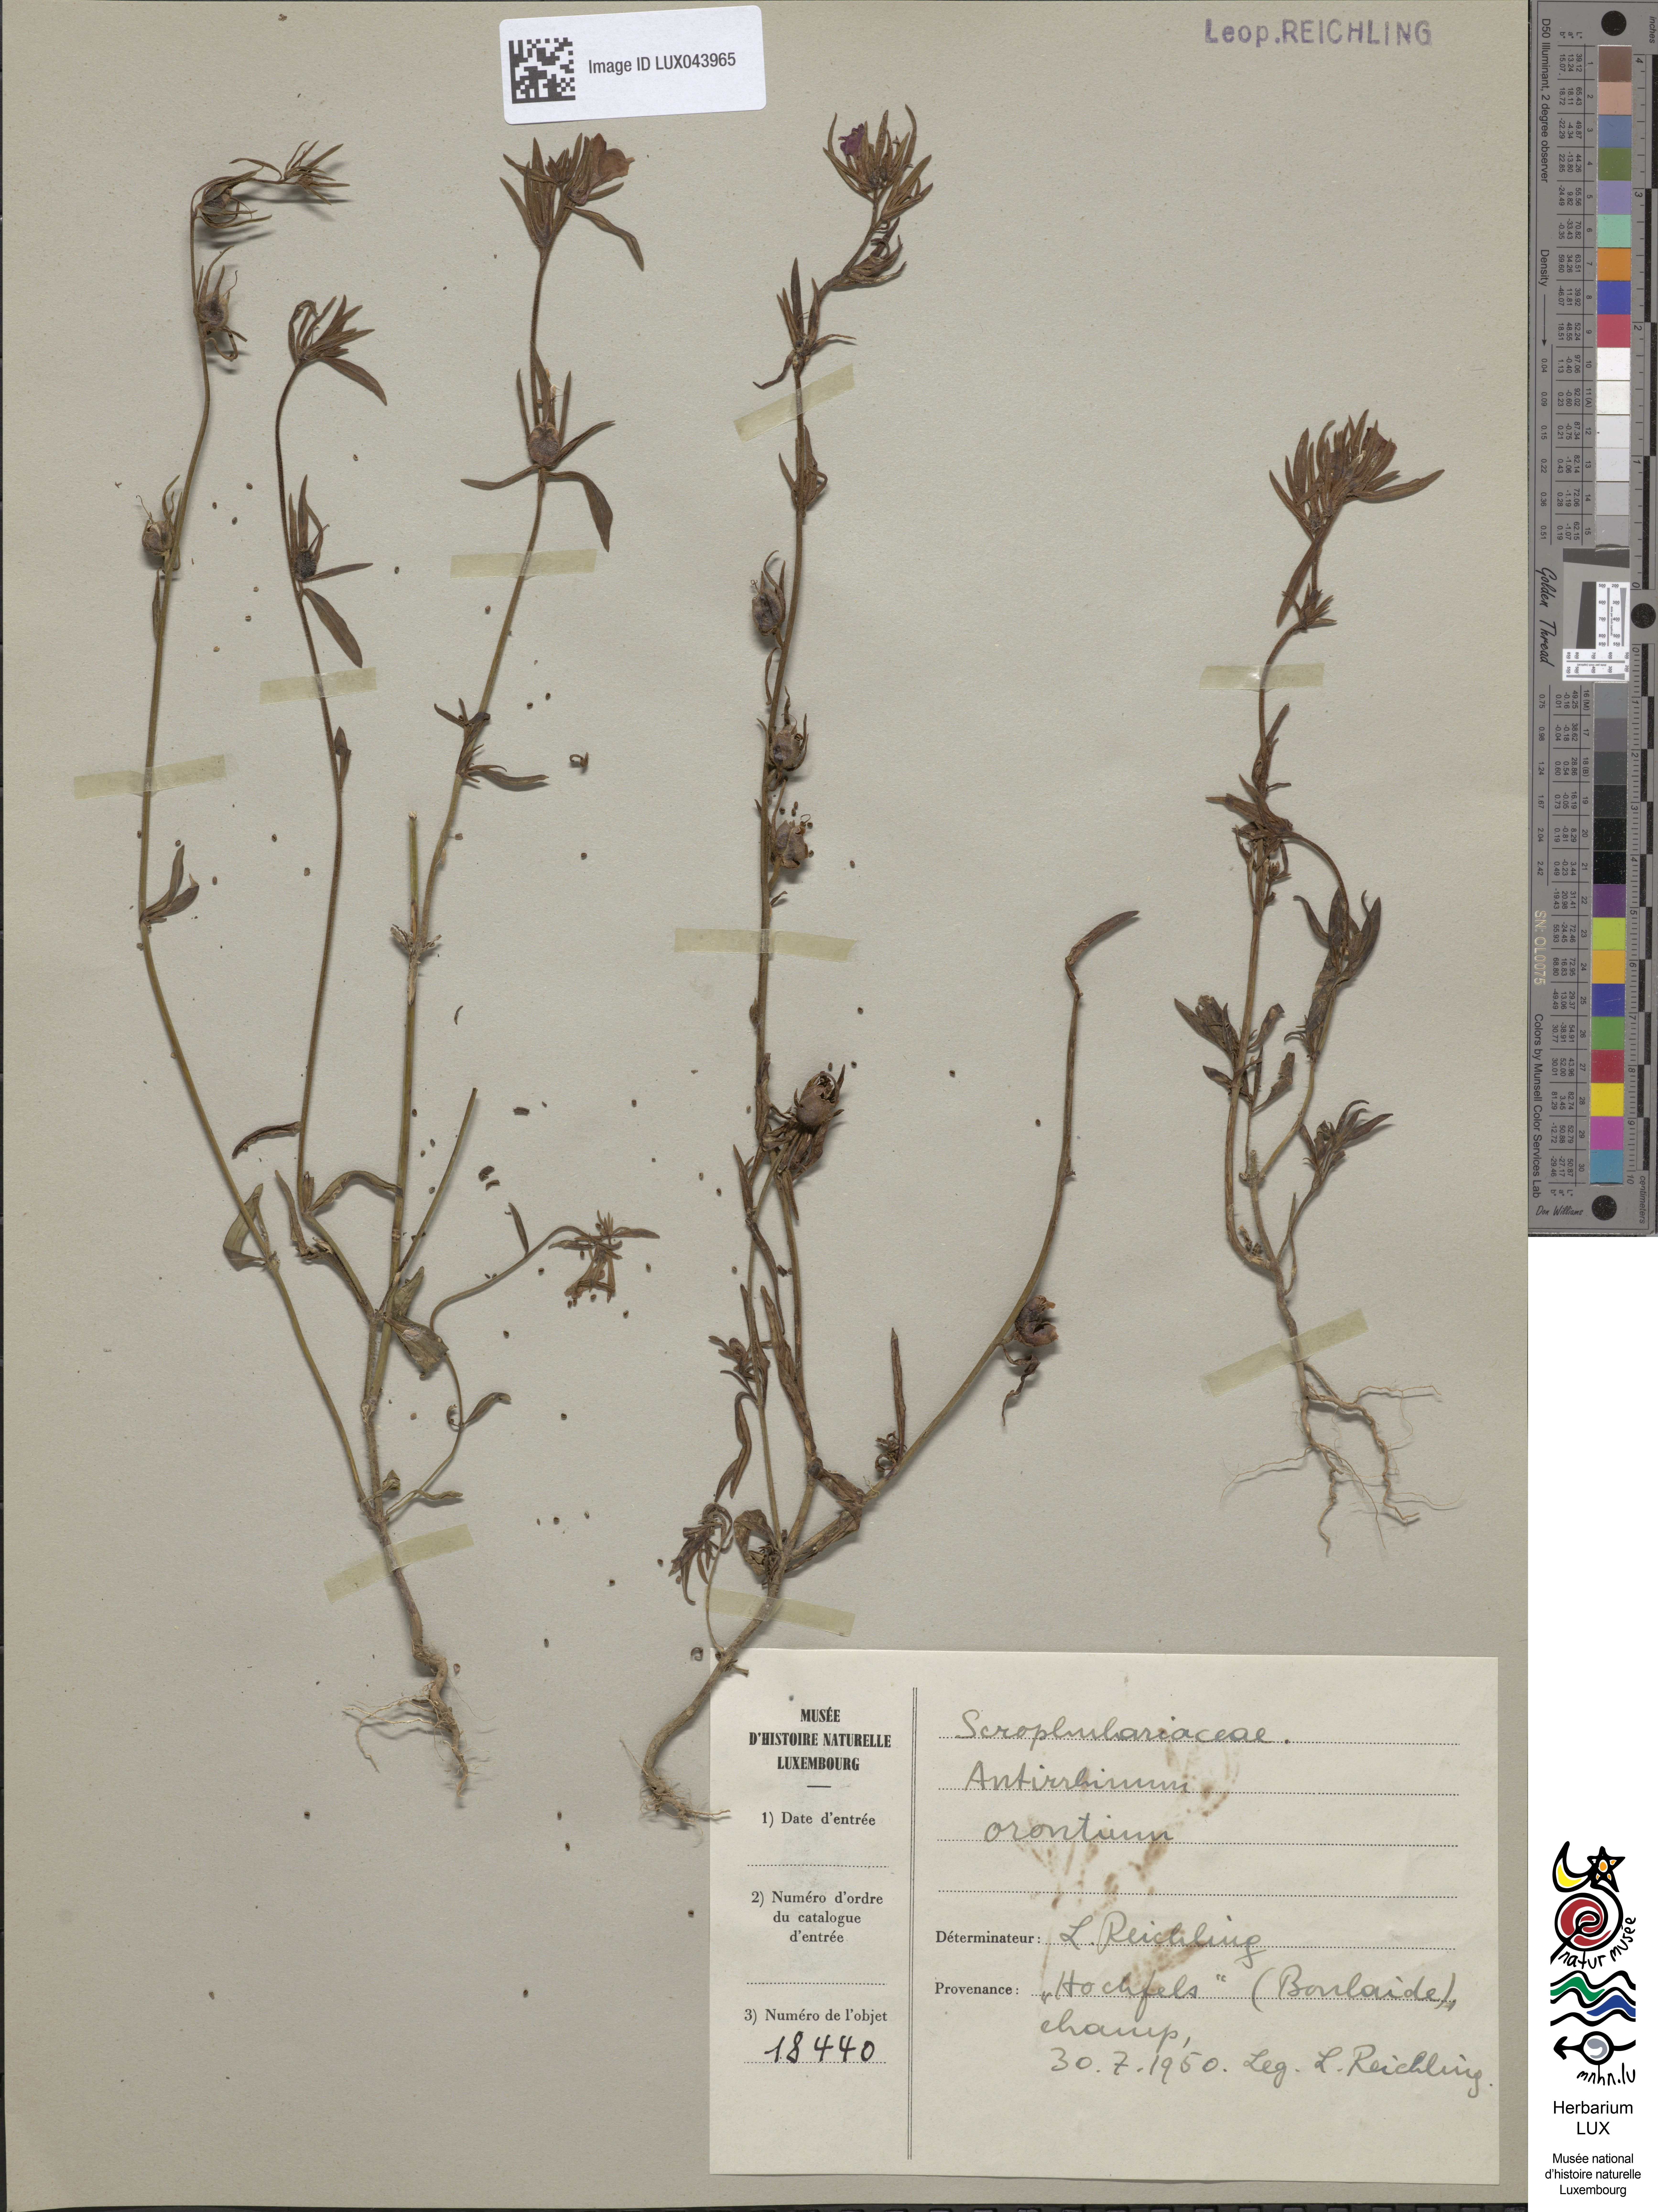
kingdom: Plantae
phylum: Tracheophyta
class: Magnoliopsida
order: Lamiales
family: Plantaginaceae
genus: Misopates
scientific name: Misopates orontium
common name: Weasel's-snout
